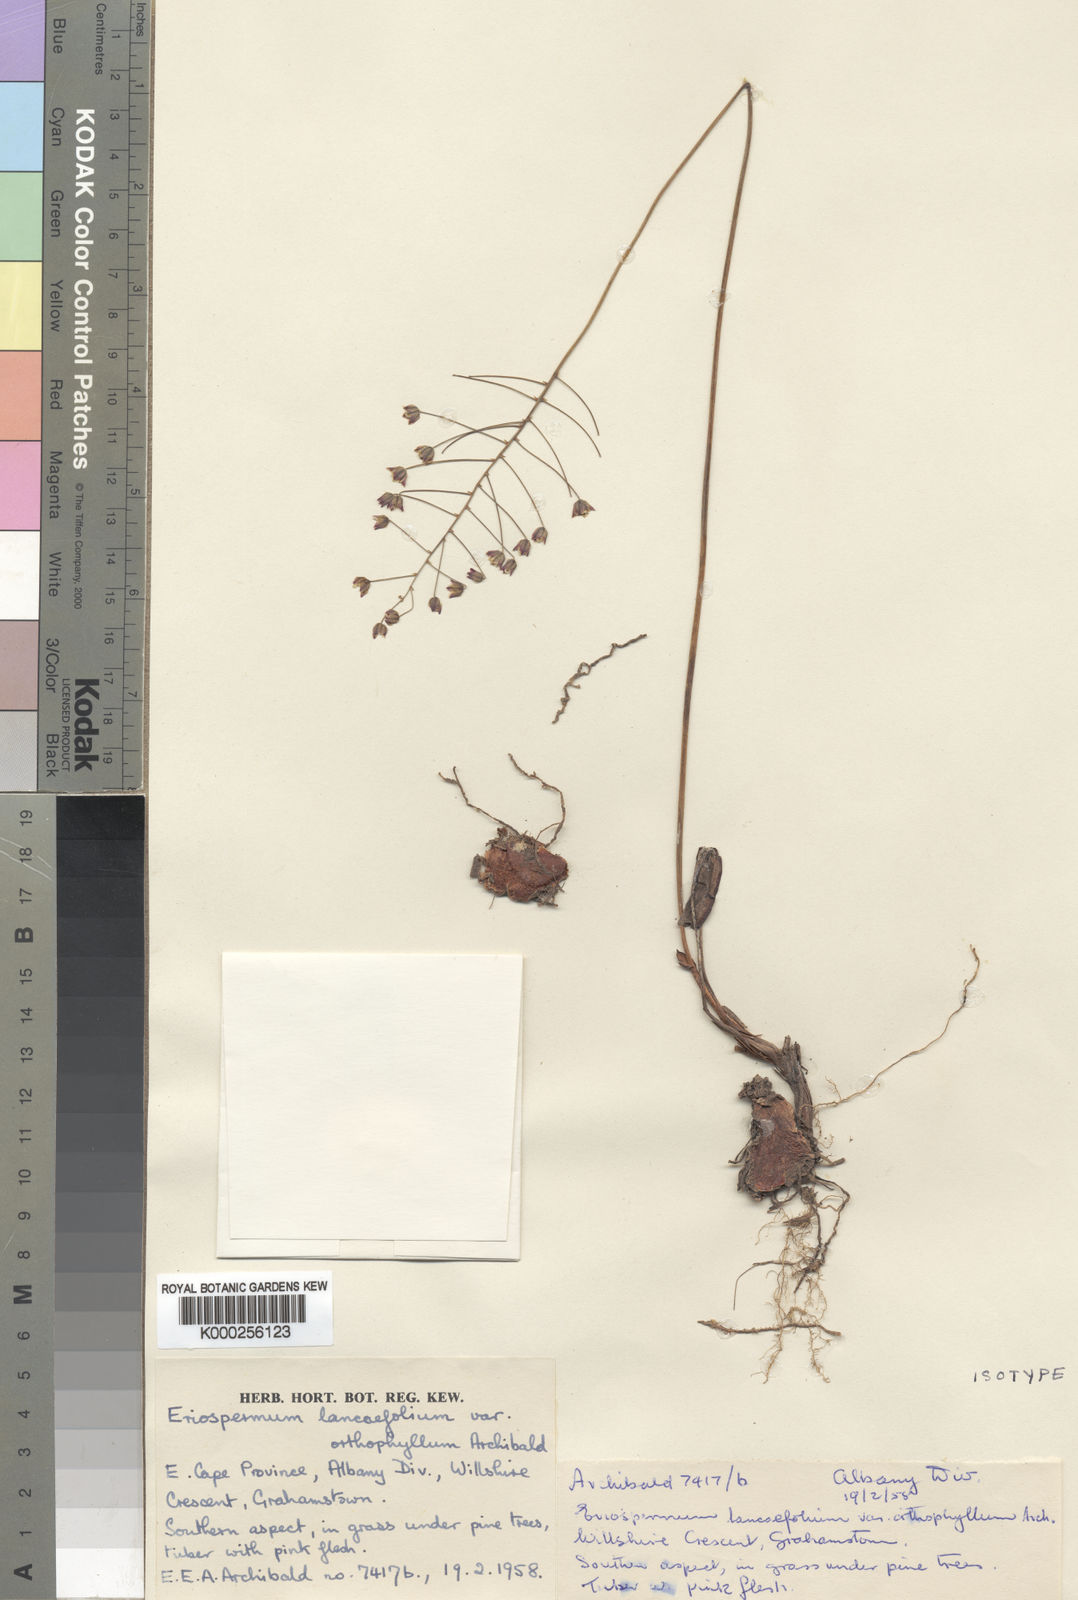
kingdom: Plantae
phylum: Tracheophyta
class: Liliopsida
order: Asparagales
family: Asparagaceae
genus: Eriospermum
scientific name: Eriospermum orthophyllum
